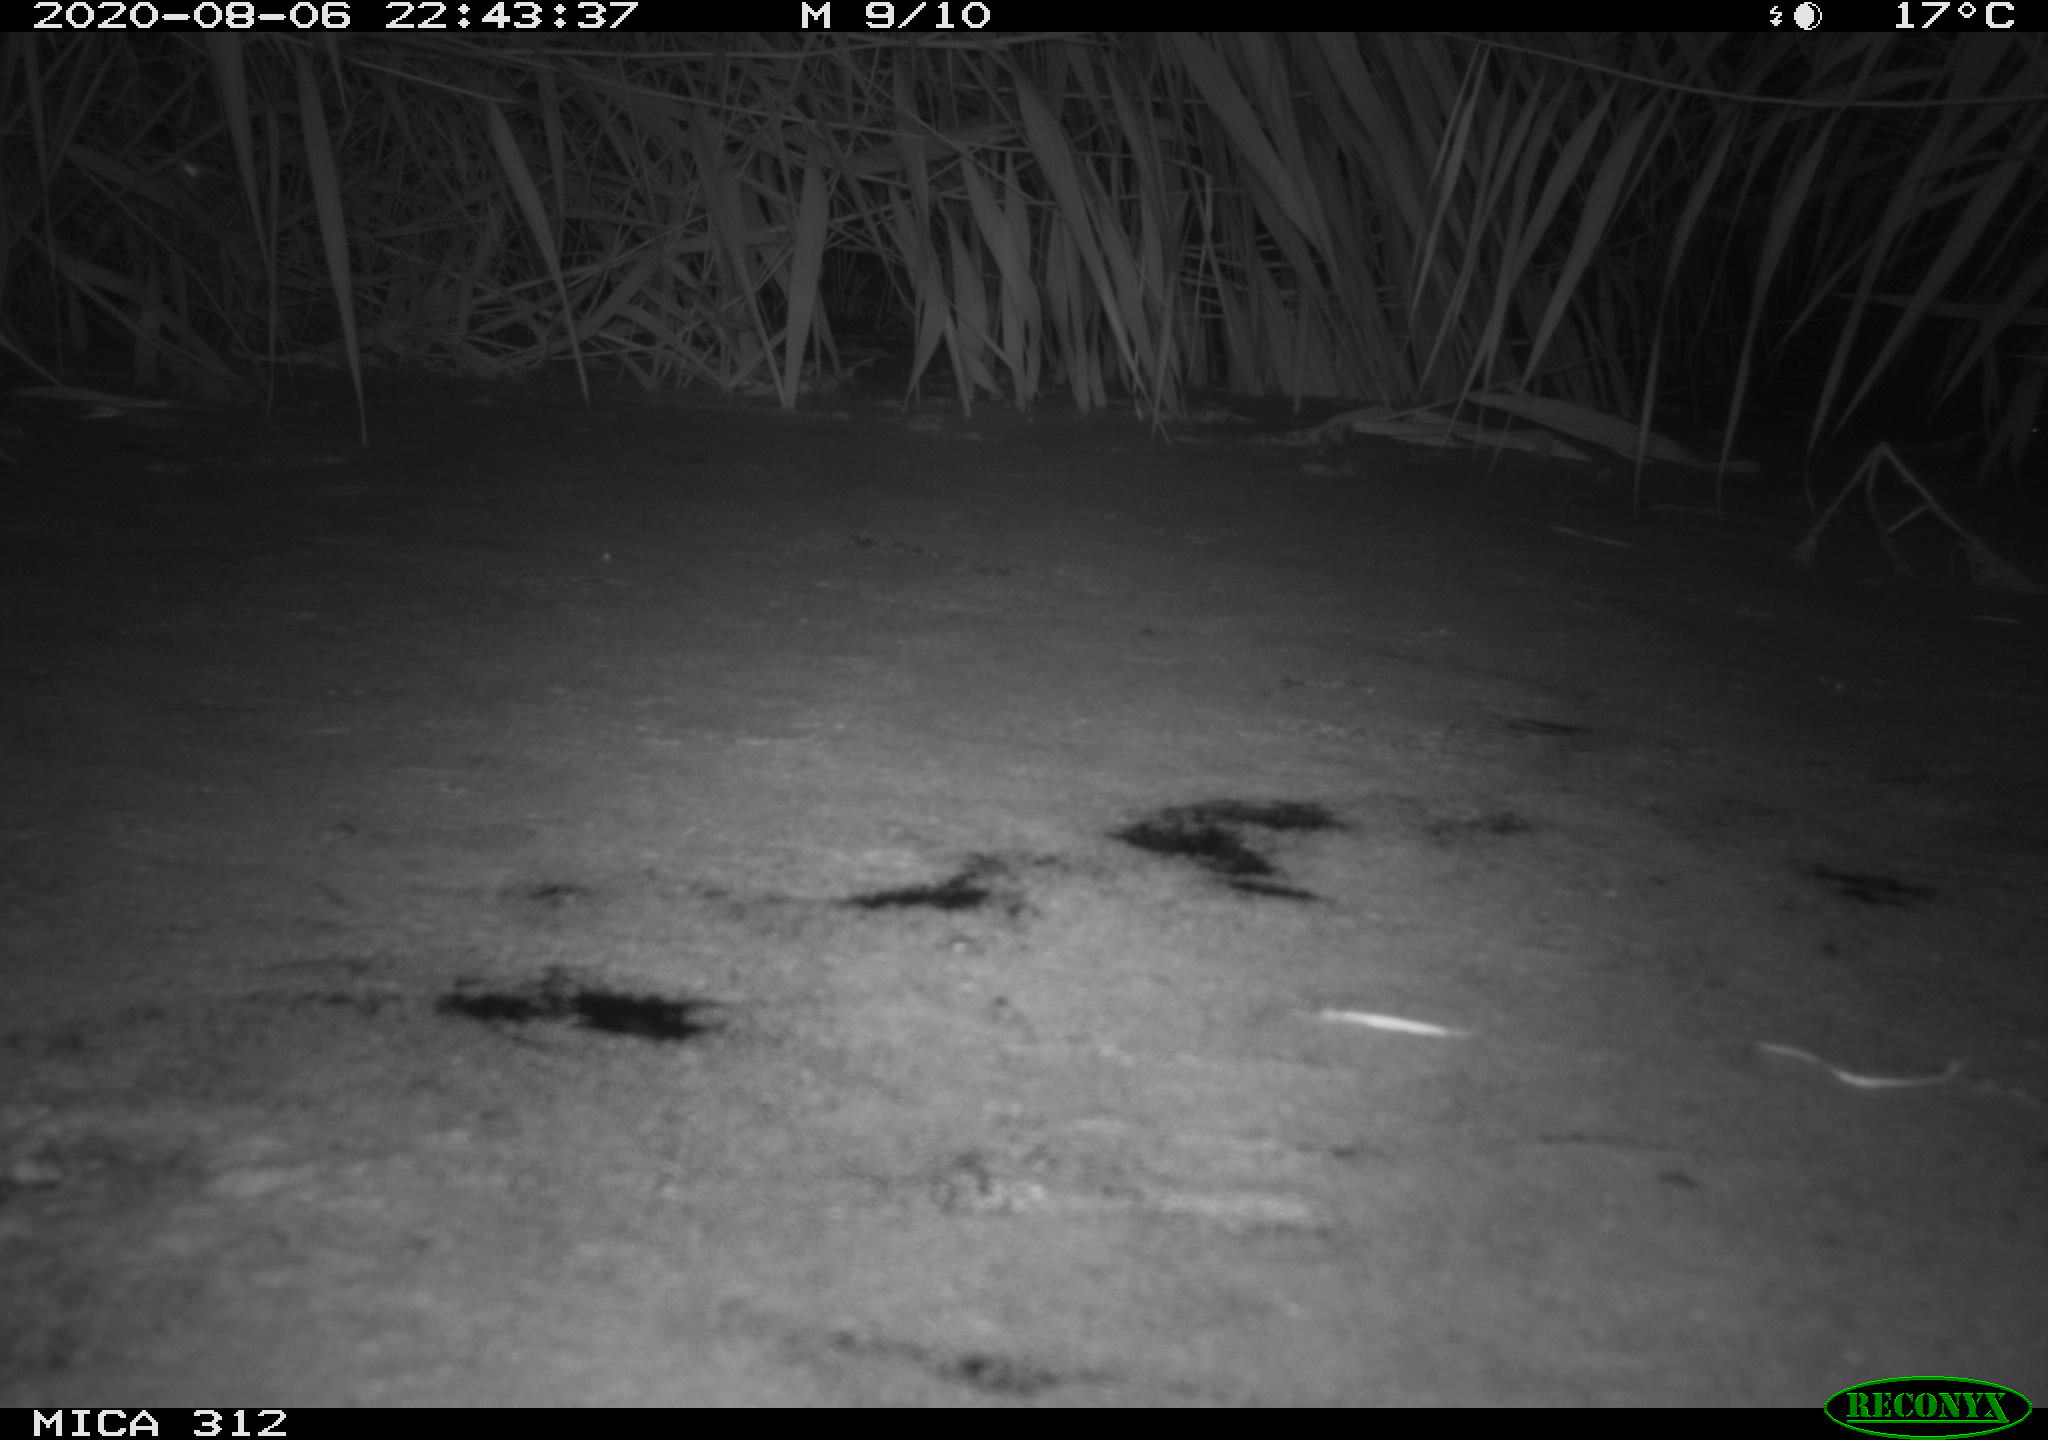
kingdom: Animalia
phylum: Chordata
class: Mammalia
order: Rodentia
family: Cricetidae
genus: Ondatra
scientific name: Ondatra zibethicus
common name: Muskrat
